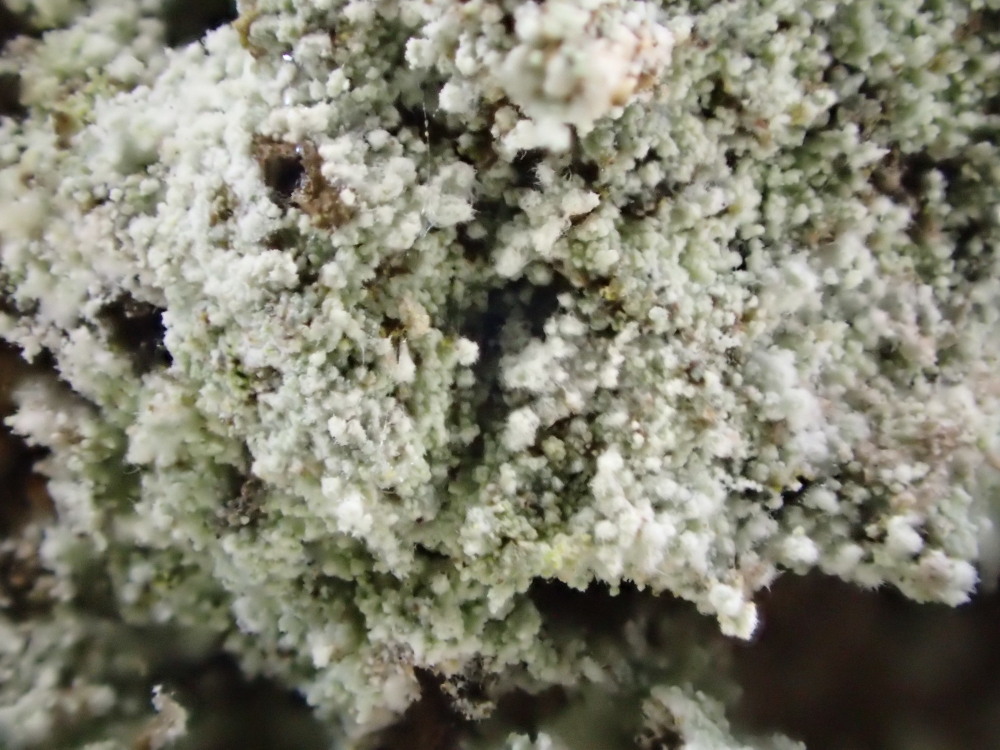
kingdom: Fungi
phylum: Ascomycota
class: Lecanoromycetes
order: Lecanorales
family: Stereocaulaceae
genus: Lepraria
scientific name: Lepraria lobificans
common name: grøn støvlav
